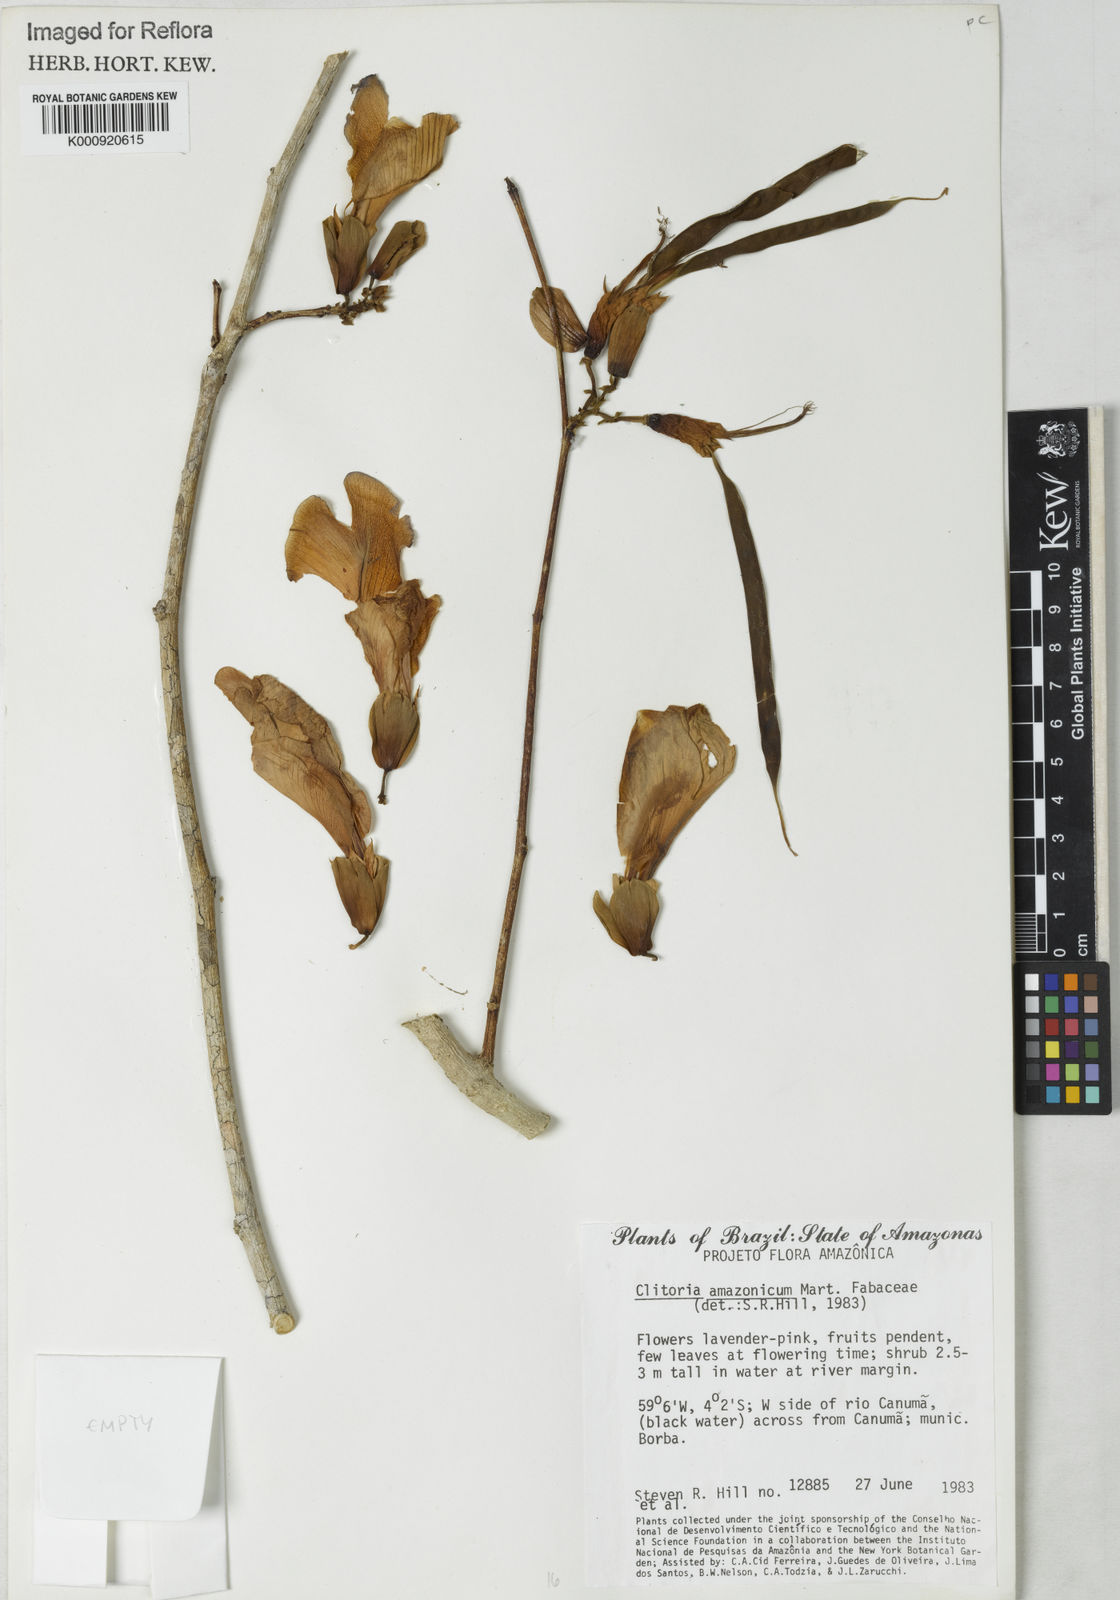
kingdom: Plantae
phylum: Tracheophyta
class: Magnoliopsida
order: Fabales
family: Fabaceae
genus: Clitoria
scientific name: Clitoria amazonum
